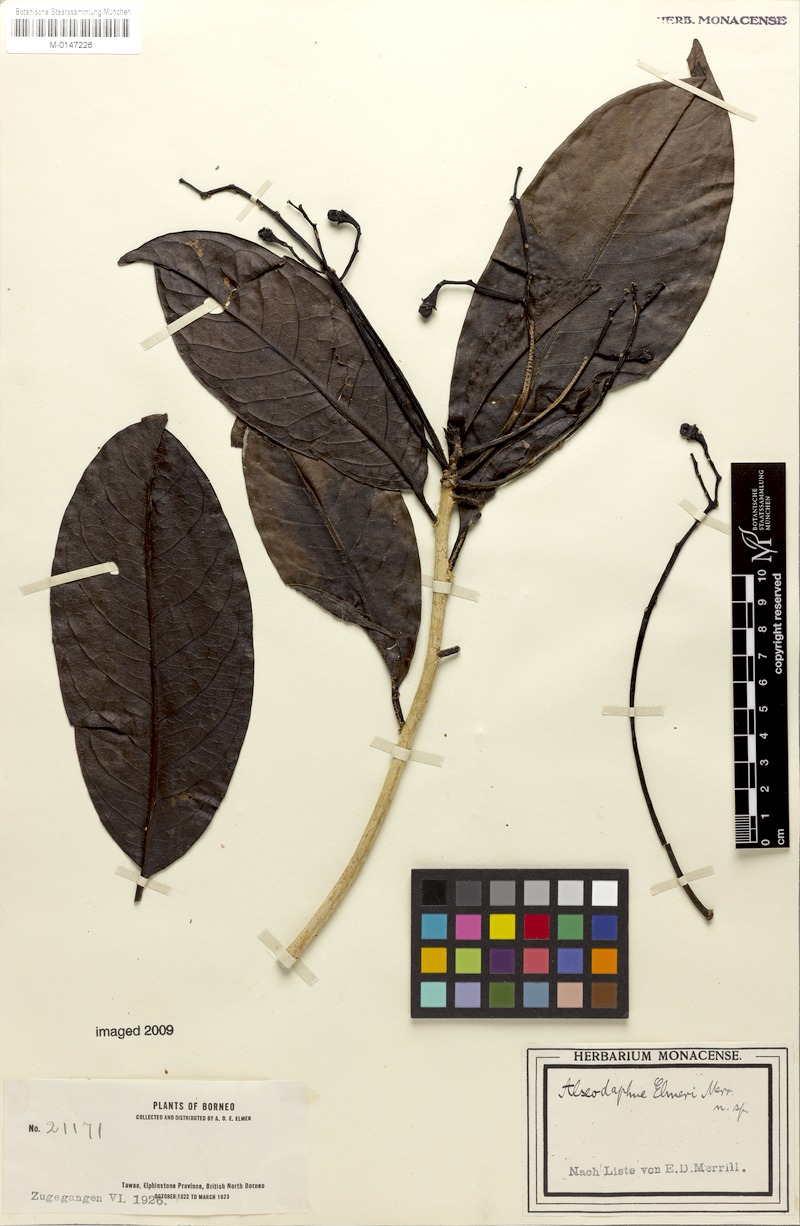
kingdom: Plantae
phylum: Tracheophyta
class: Magnoliopsida
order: Laurales
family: Lauraceae
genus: Alseodaphne
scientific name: Alseodaphne elmeri
